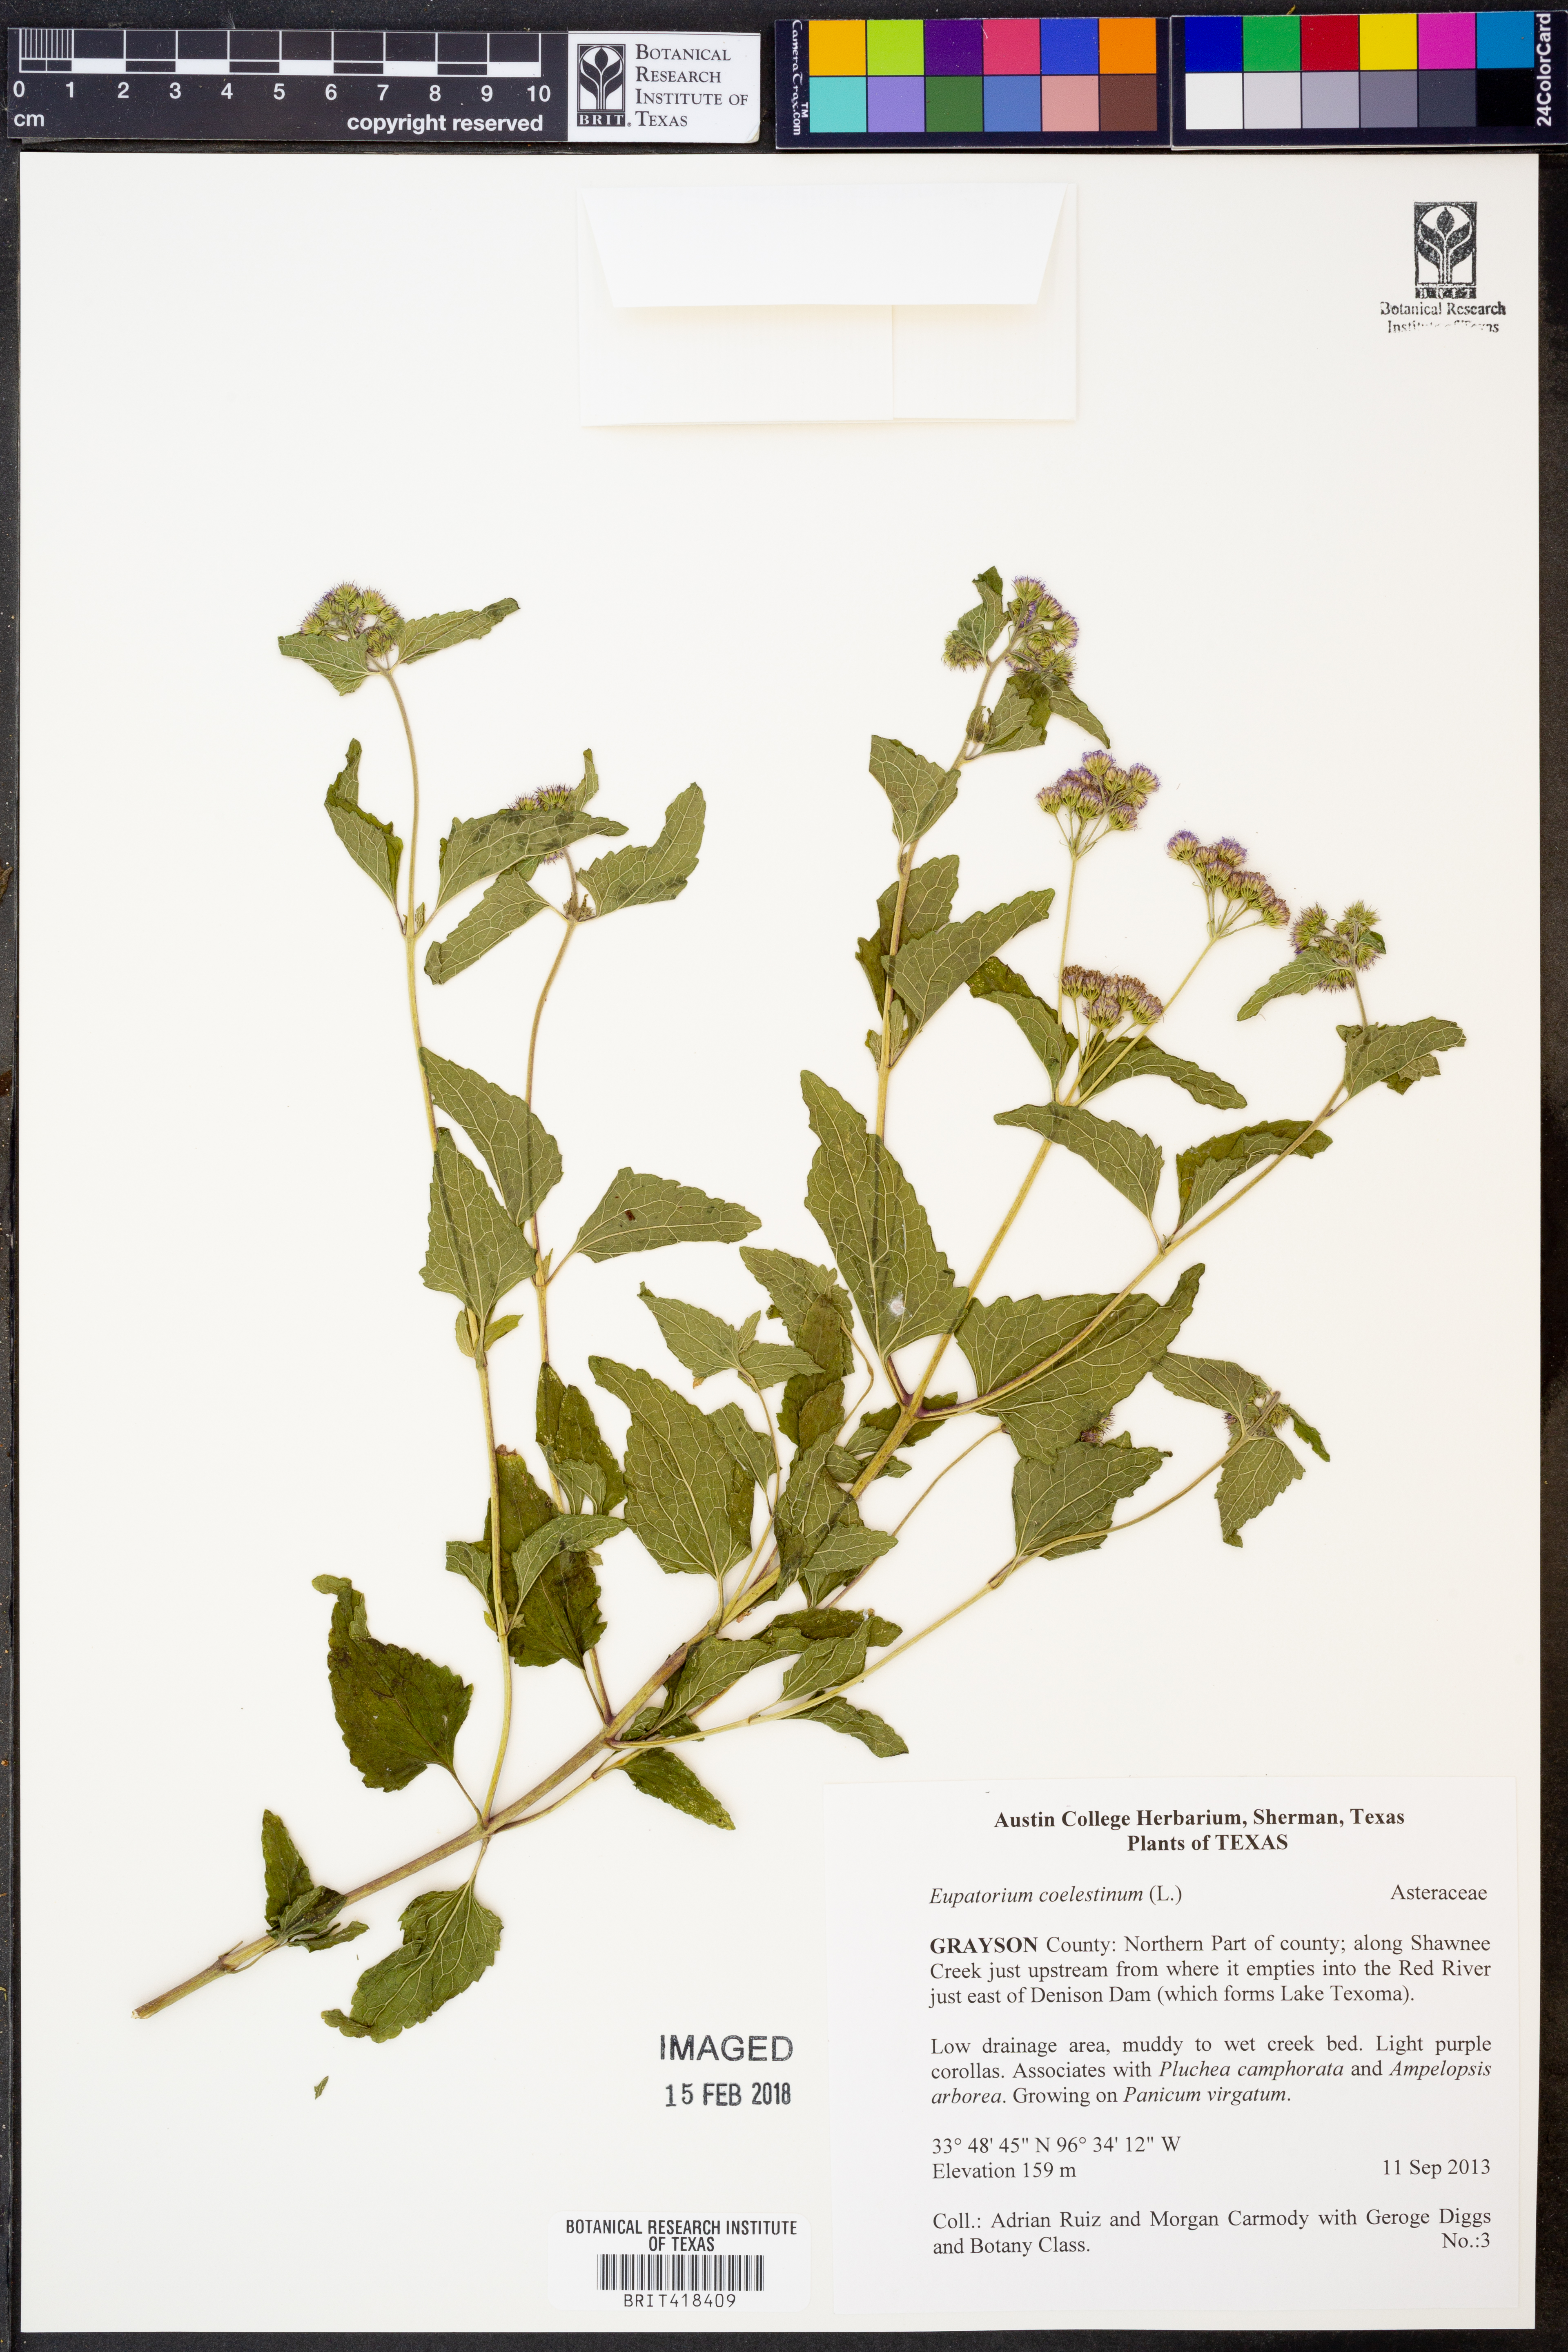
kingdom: Plantae
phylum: Tracheophyta
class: Magnoliopsida
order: Asterales
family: Asteraceae
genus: Conoclinium
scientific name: Conoclinium coelestinum
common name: Blue mistflower
